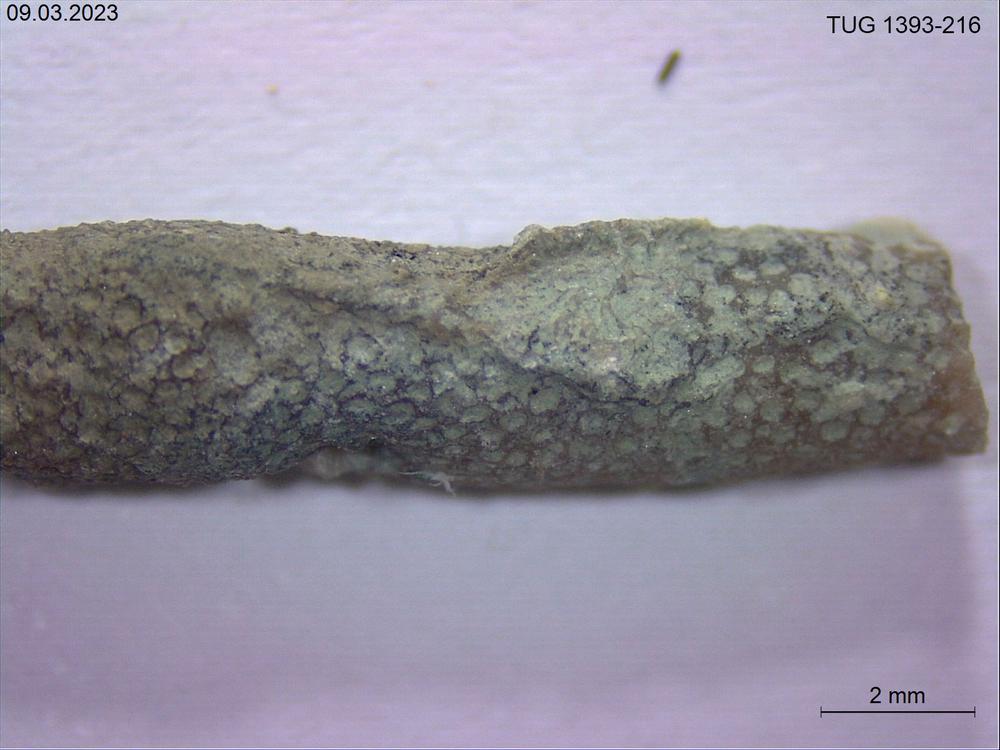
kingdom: Animalia
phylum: Bryozoa
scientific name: Bryozoa
